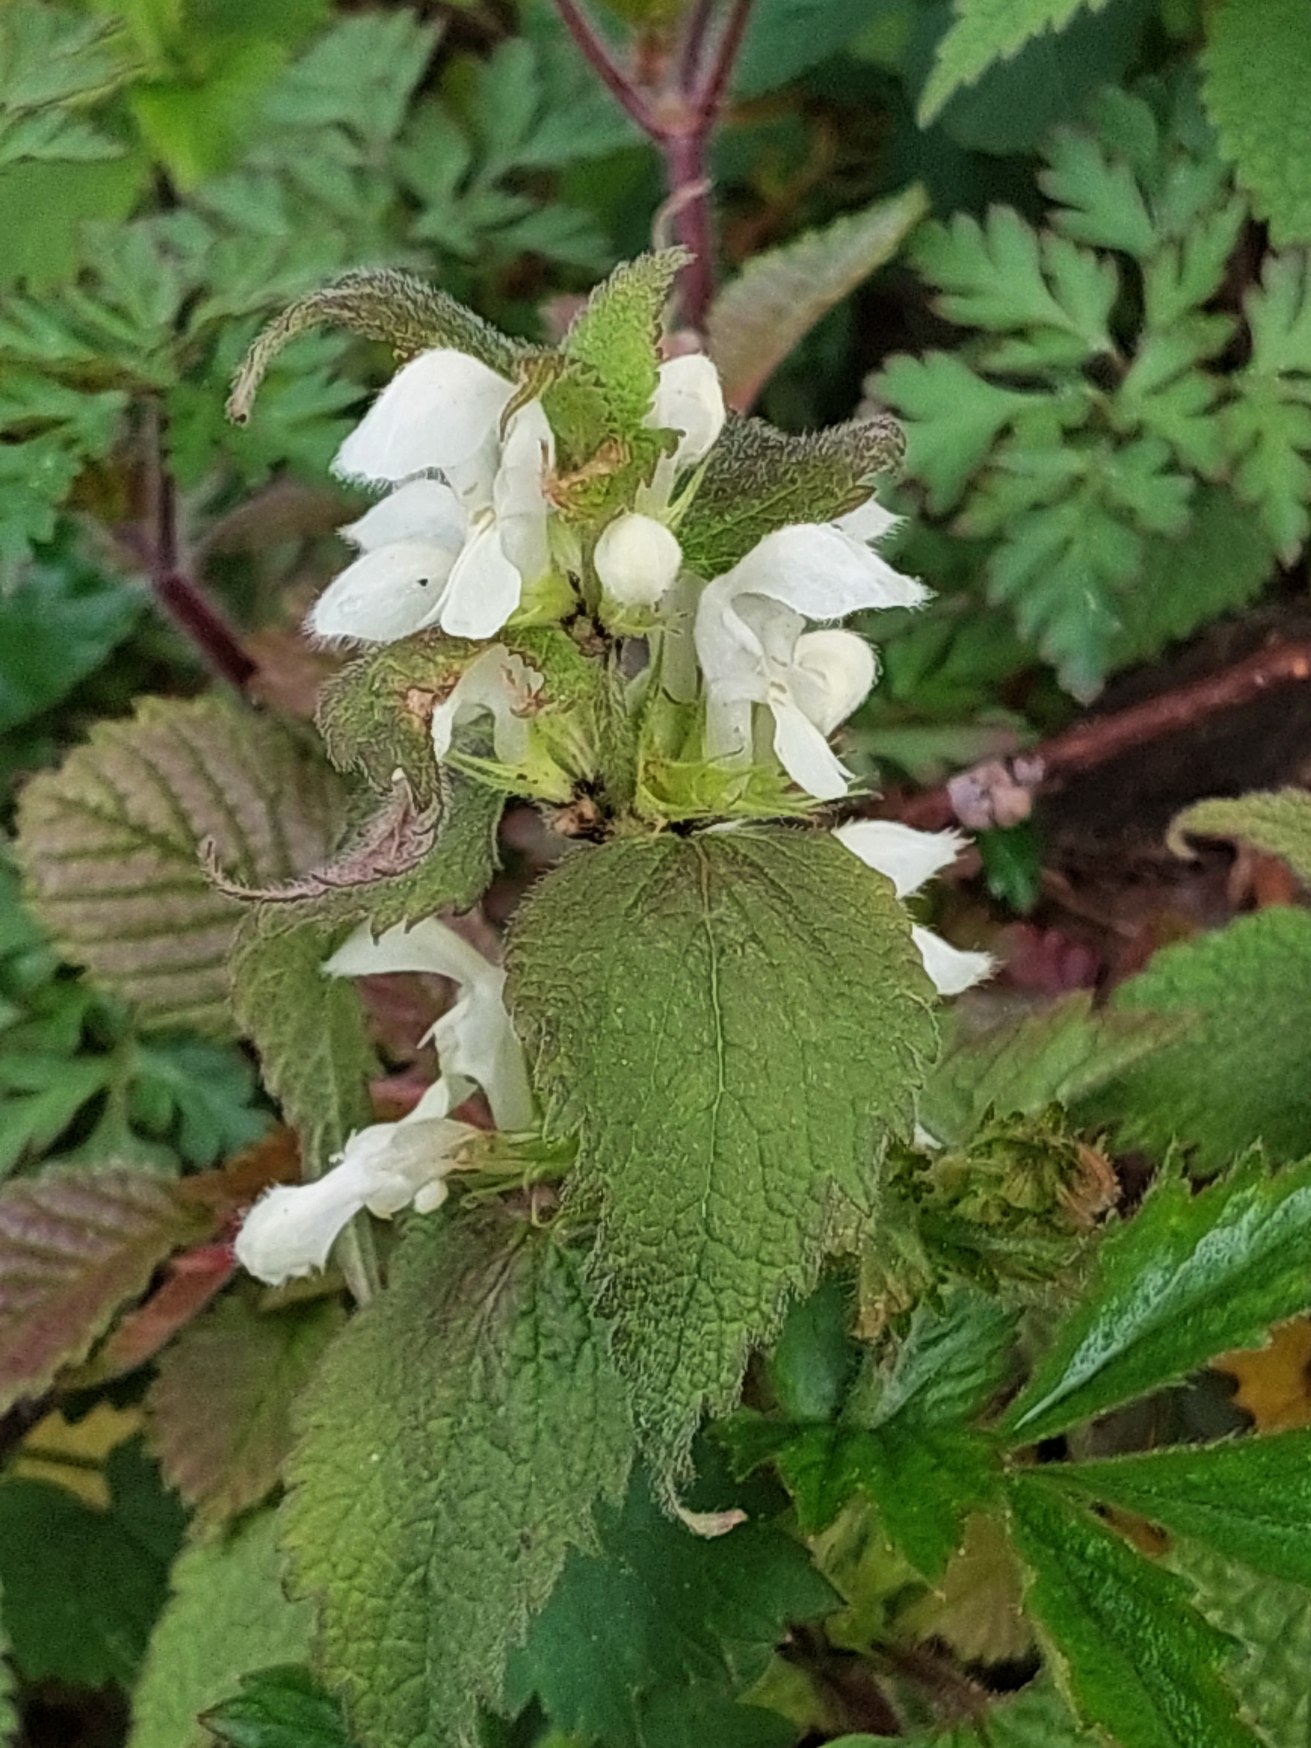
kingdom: Plantae
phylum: Tracheophyta
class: Magnoliopsida
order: Lamiales
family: Lamiaceae
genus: Lamium
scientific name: Lamium album
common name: Døvnælde
